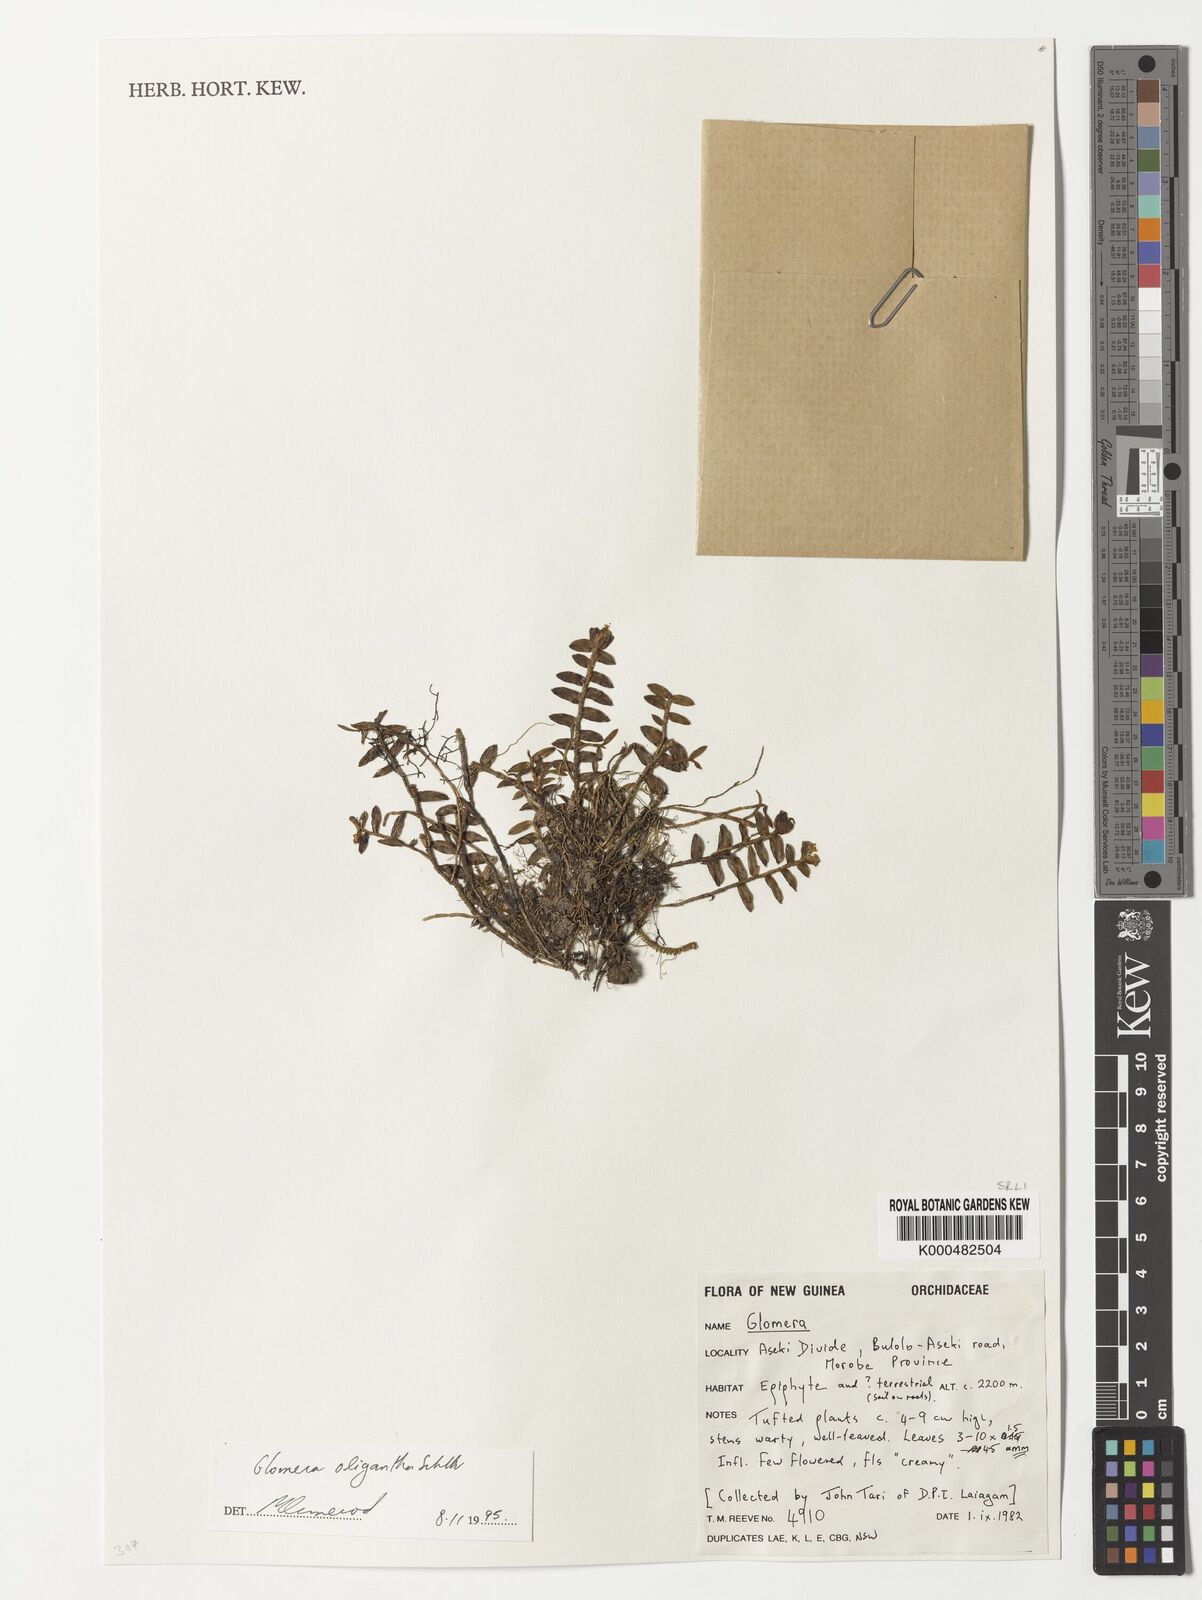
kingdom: Plantae
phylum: Tracheophyta
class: Liliopsida
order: Asparagales
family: Orchidaceae
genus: Glomera
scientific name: Glomera oligantha
